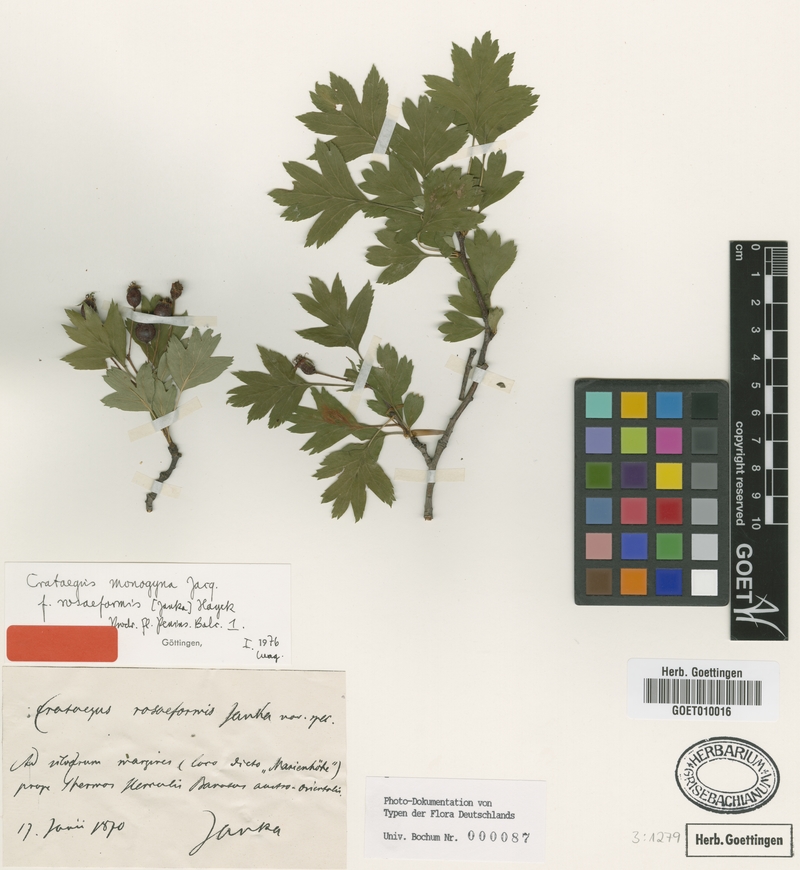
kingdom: Plantae
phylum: Tracheophyta
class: Magnoliopsida
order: Rosales
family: Rosaceae
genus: Crataegus
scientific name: Crataegus monogyna
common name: Hawthorn
